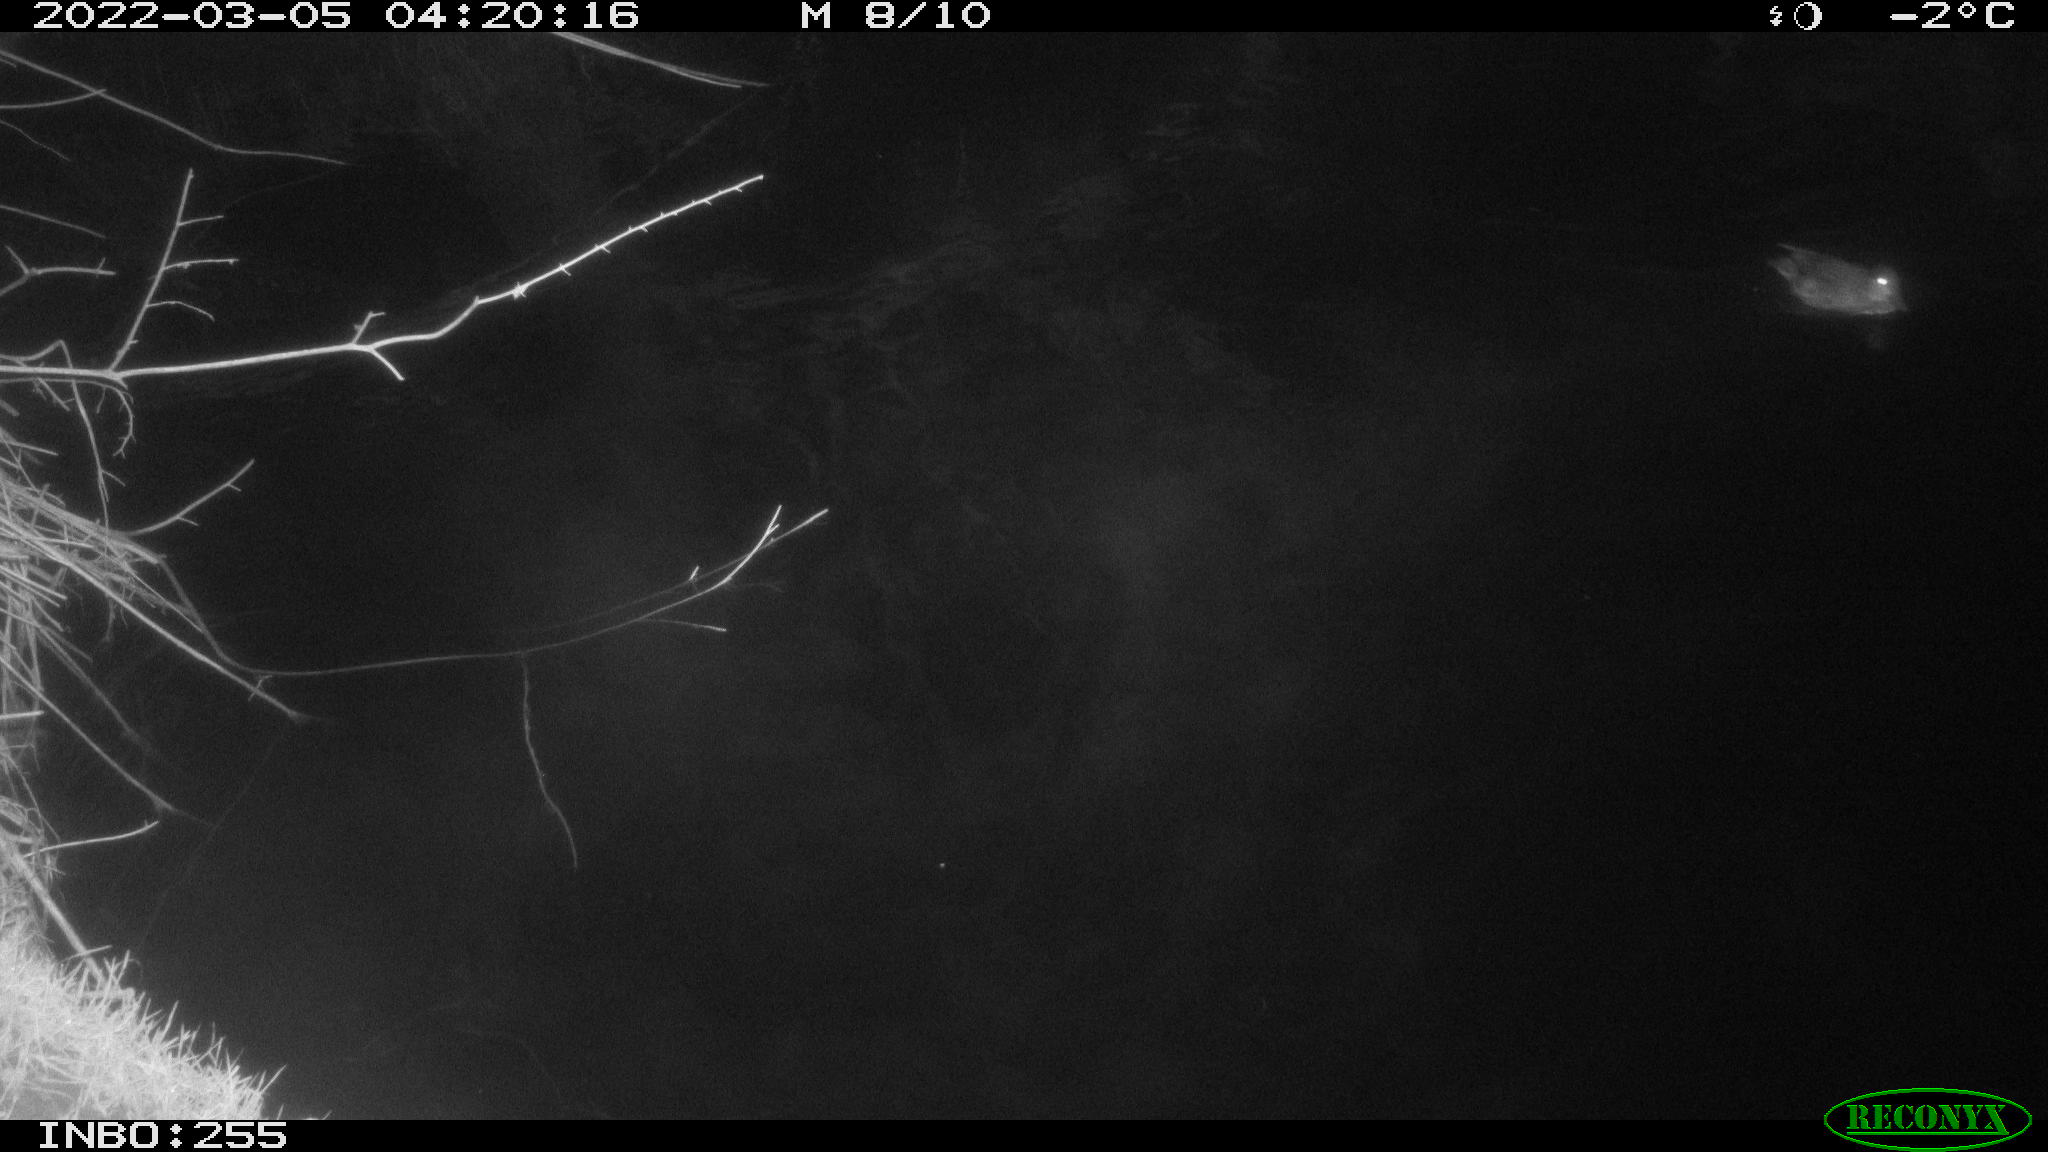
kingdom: Animalia
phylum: Chordata
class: Aves
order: Anseriformes
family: Anatidae
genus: Anas
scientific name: Anas crecca
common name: Eurasian teal
